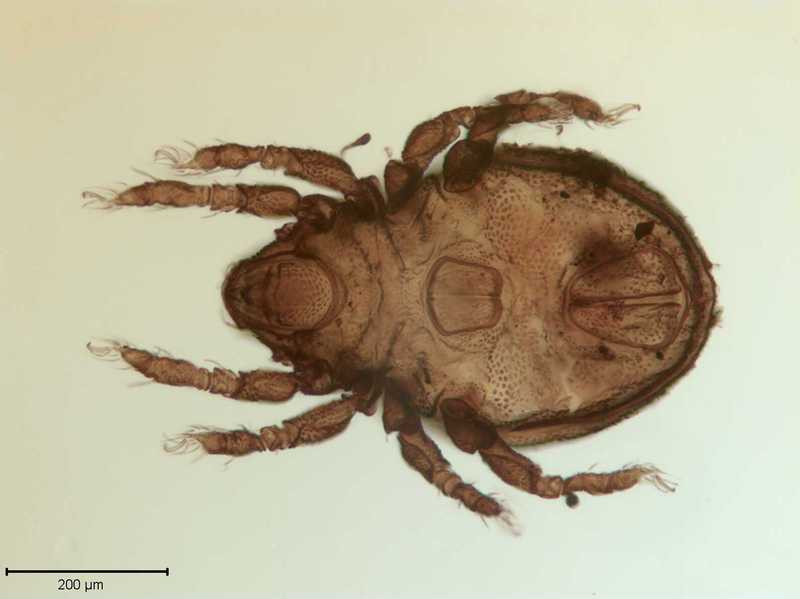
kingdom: Animalia
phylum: Arthropoda
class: Arachnida
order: Sarcoptiformes
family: Scutoverticidae
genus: Scutovertex
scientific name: Scutovertex minutus
